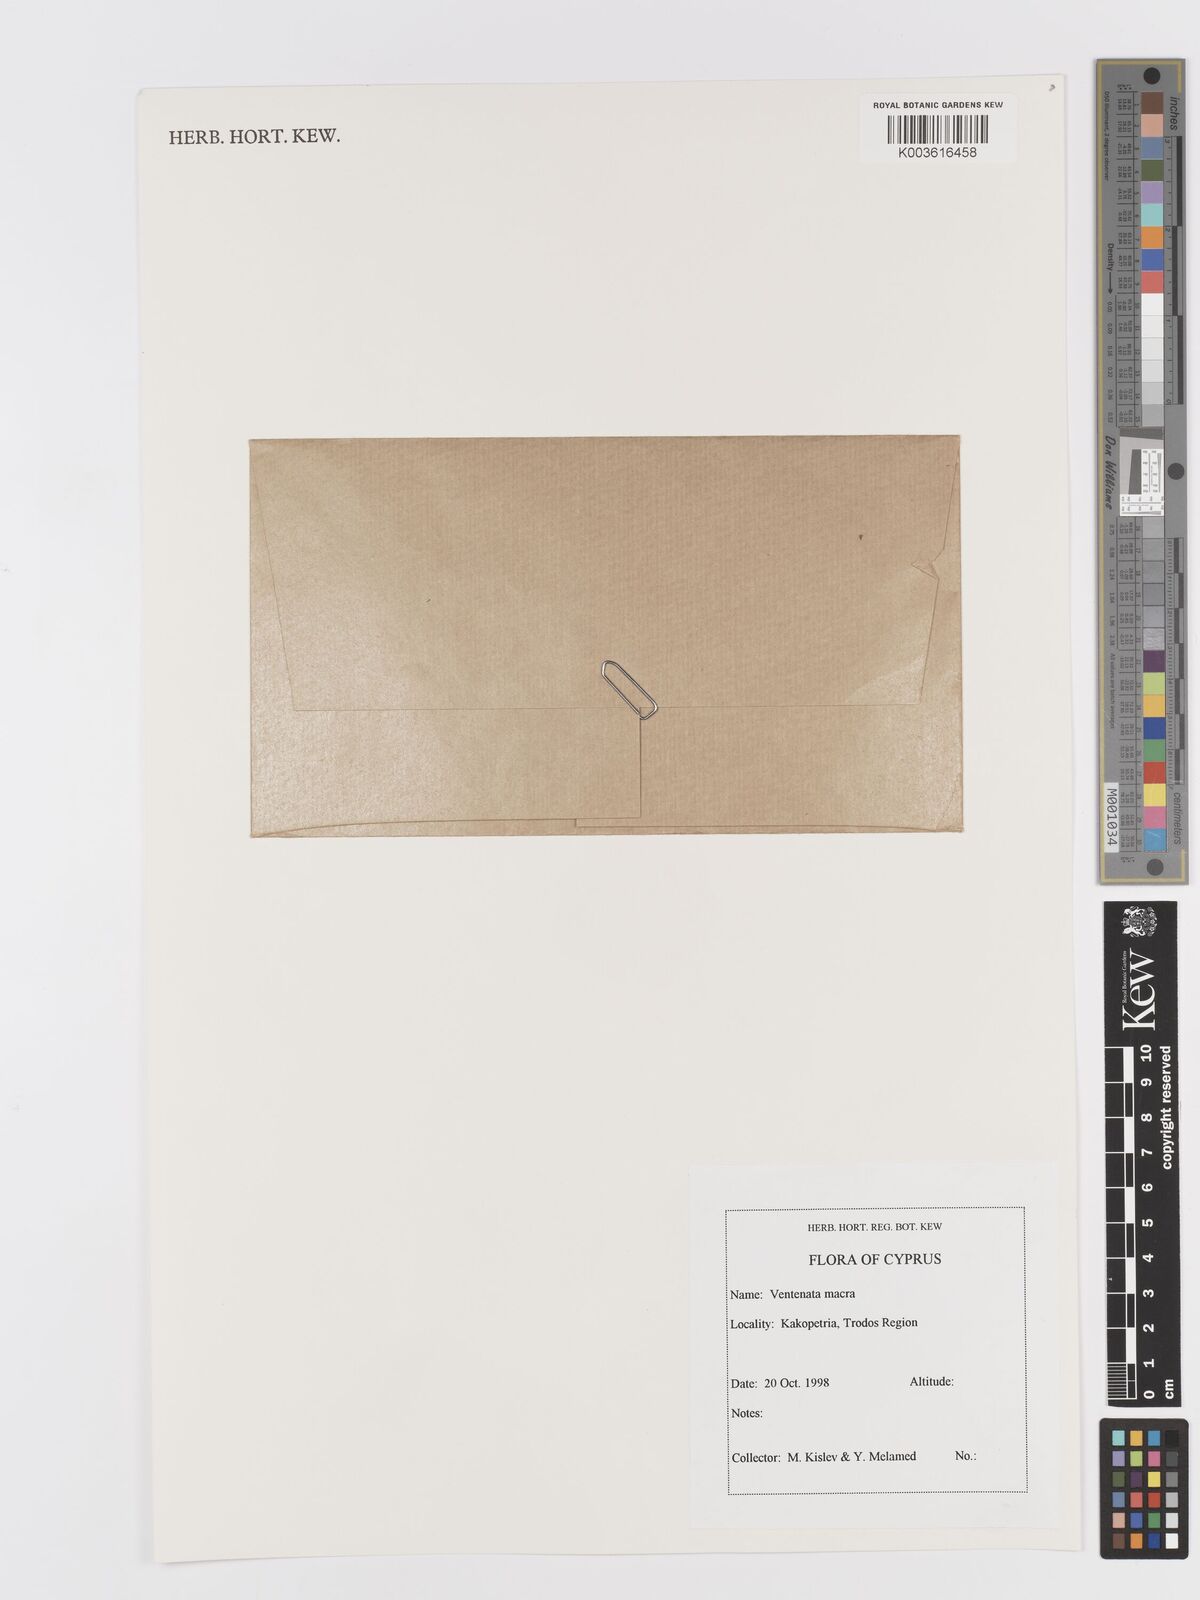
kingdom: Plantae
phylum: Tracheophyta
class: Liliopsida
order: Poales
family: Poaceae
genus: Ventenata
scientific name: Ventenata macra
